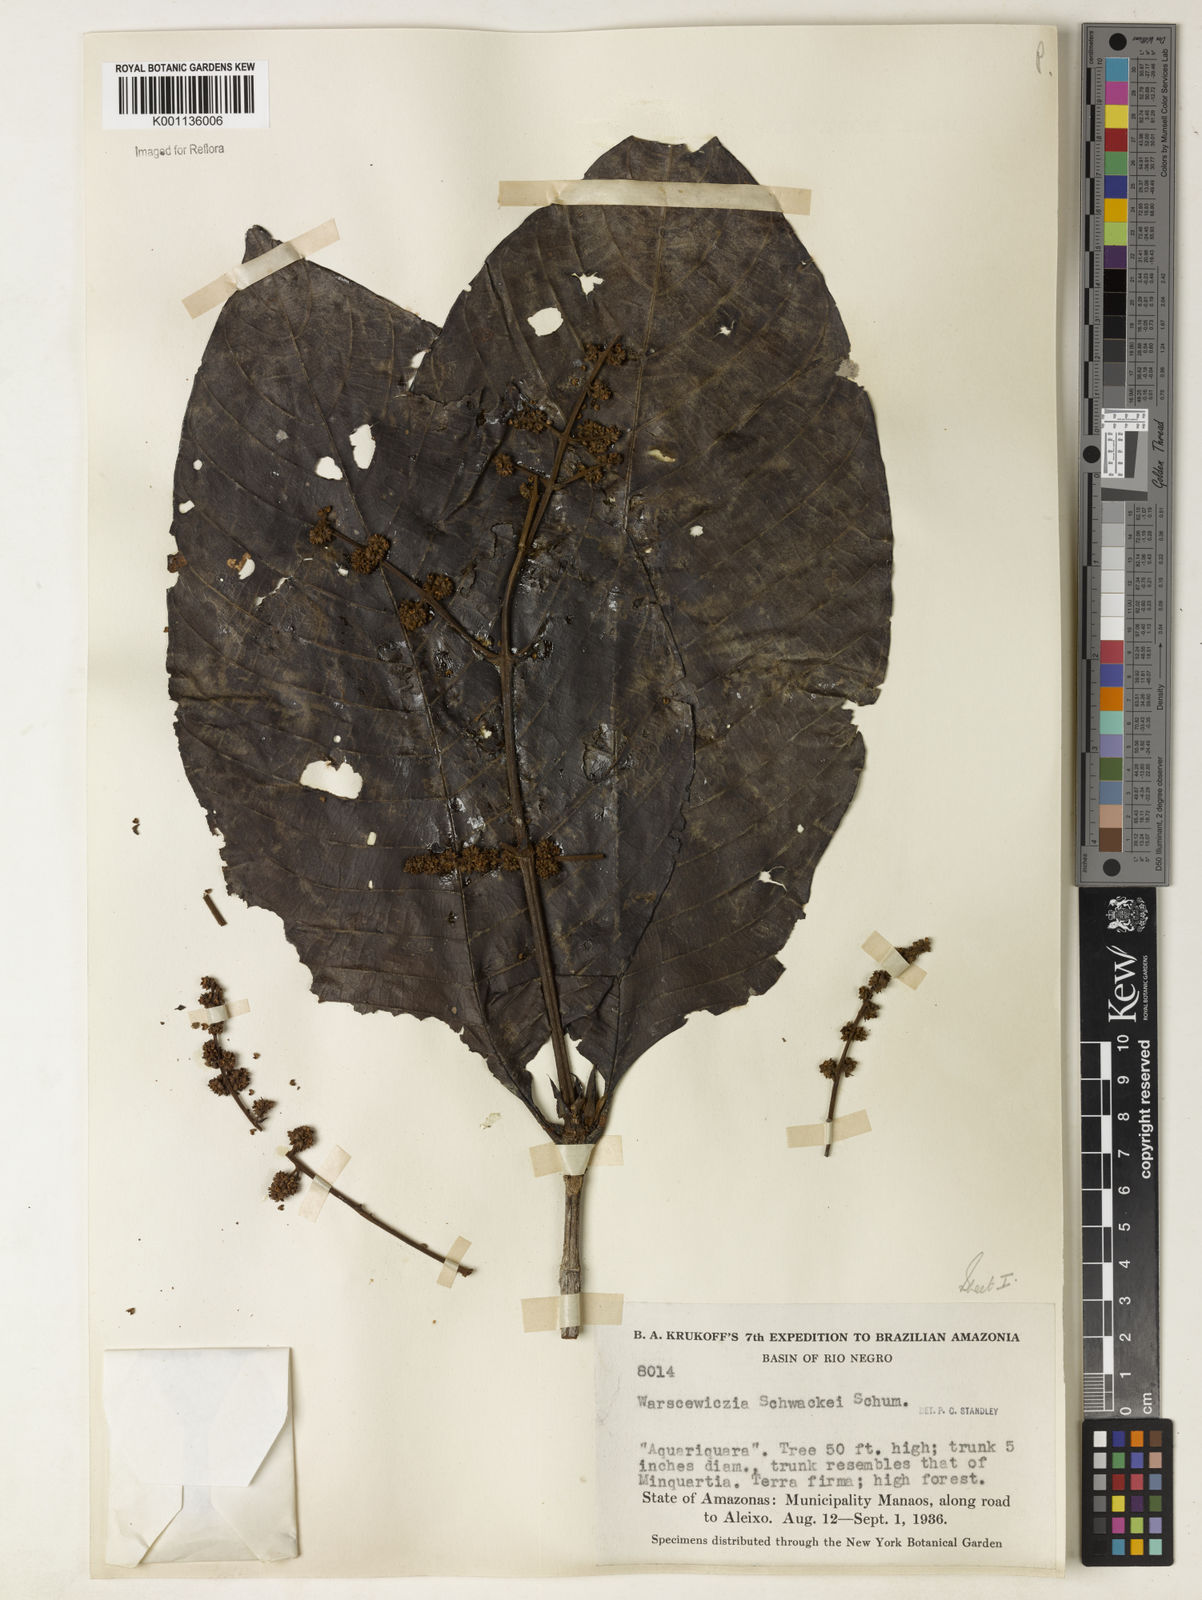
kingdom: Plantae
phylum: Tracheophyta
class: Magnoliopsida
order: Gentianales
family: Rubiaceae
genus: Warszewiczia
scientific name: Warszewiczia schwackei
